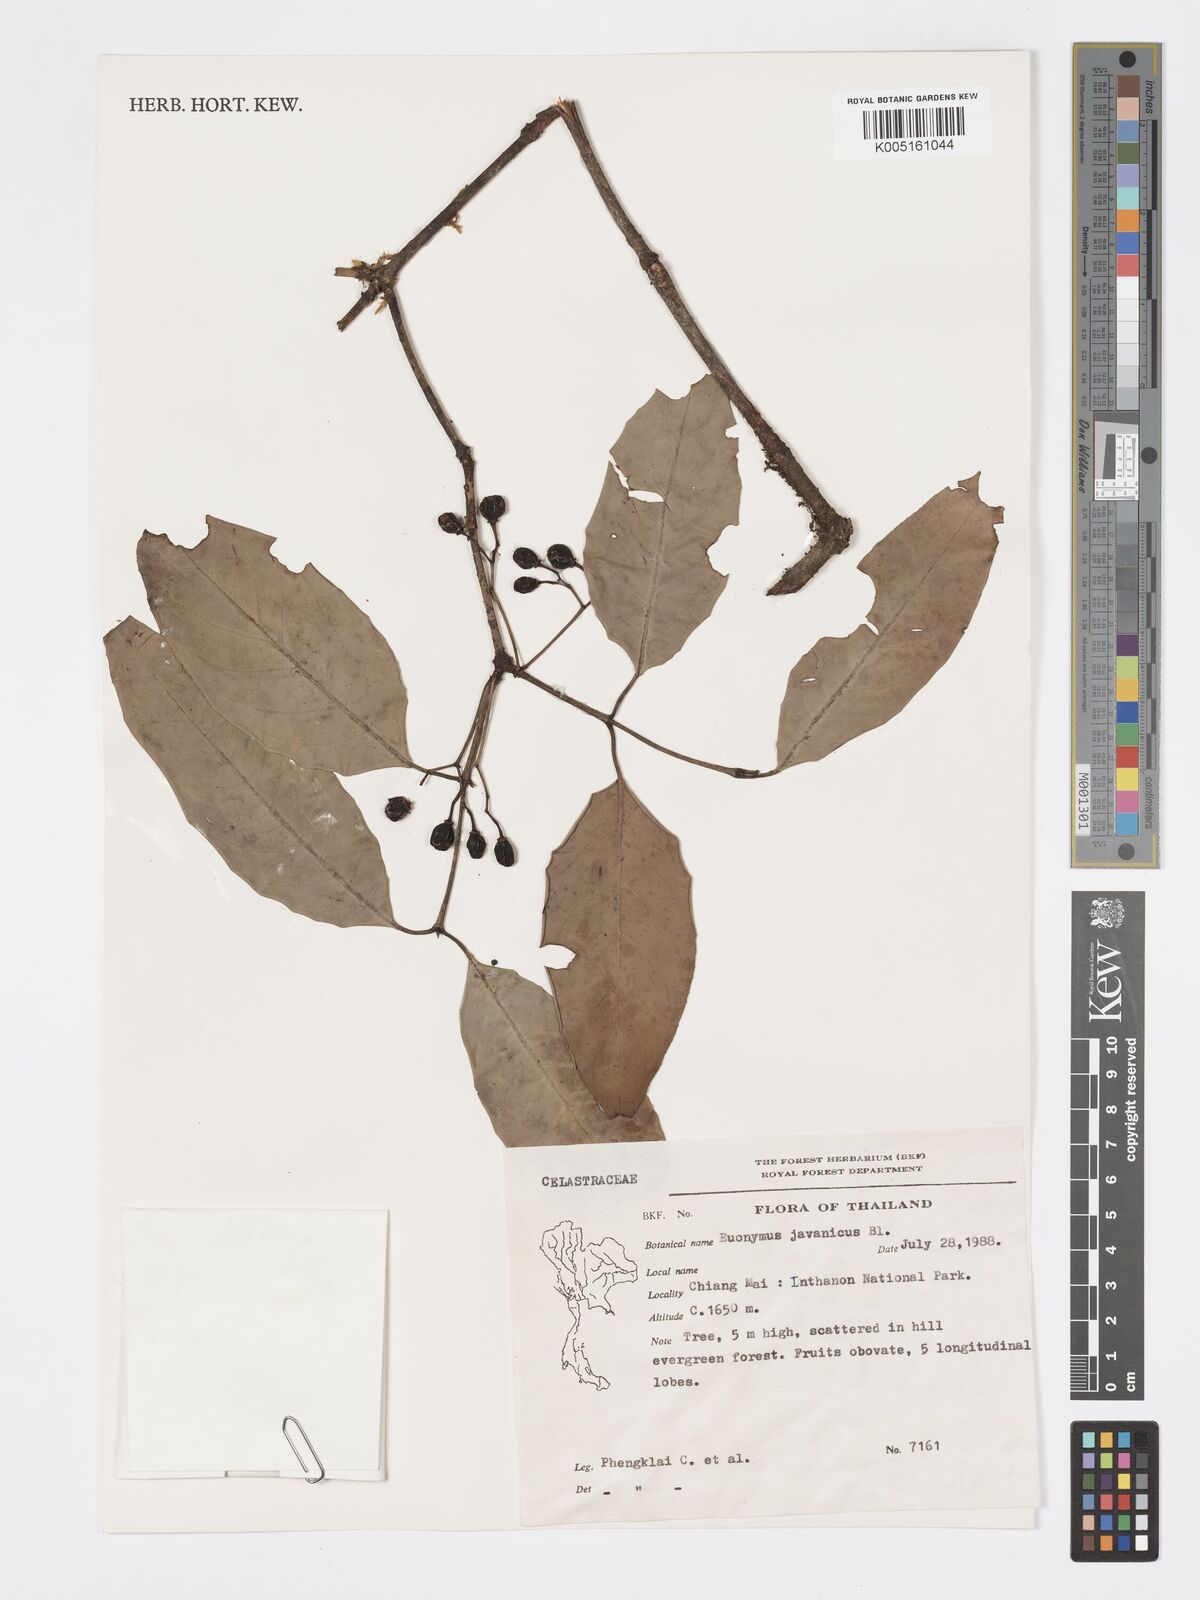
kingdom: Plantae
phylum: Tracheophyta
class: Magnoliopsida
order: Celastrales
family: Celastraceae
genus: Euonymus
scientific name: Euonymus indicus
